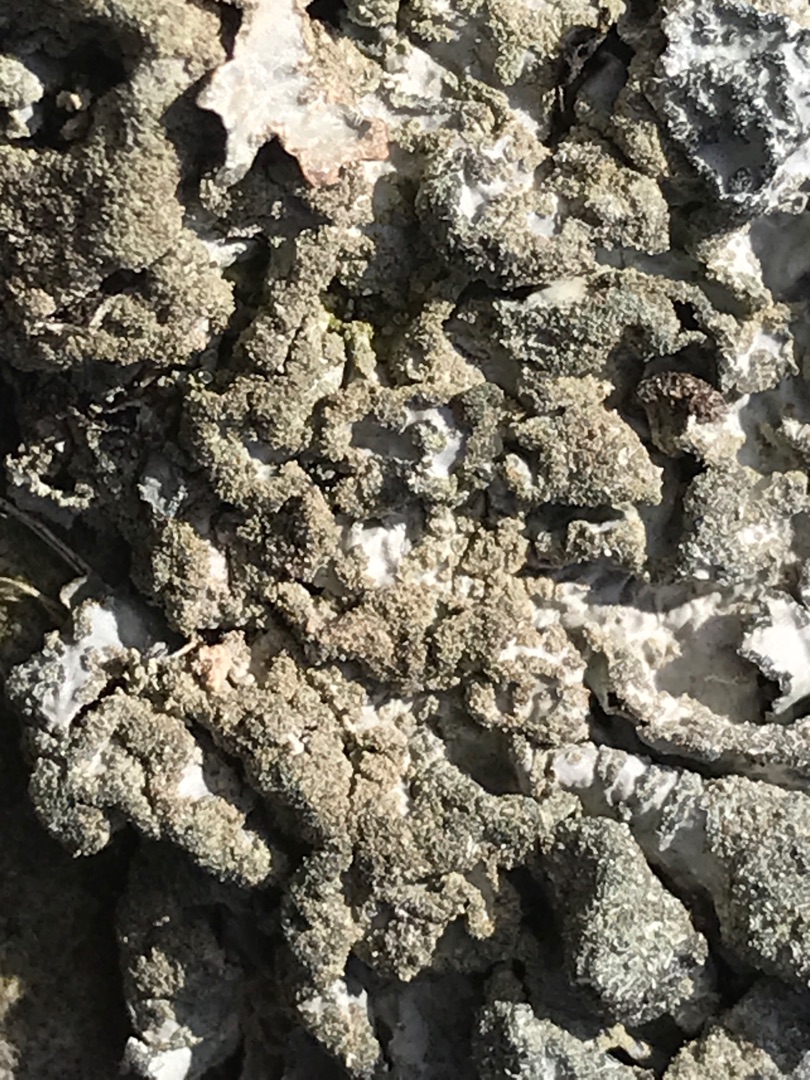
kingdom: Fungi
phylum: Ascomycota
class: Lecanoromycetes
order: Lecanorales
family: Parmeliaceae
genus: Parmelia
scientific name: Parmelia sulcata
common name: Rynket skållav
